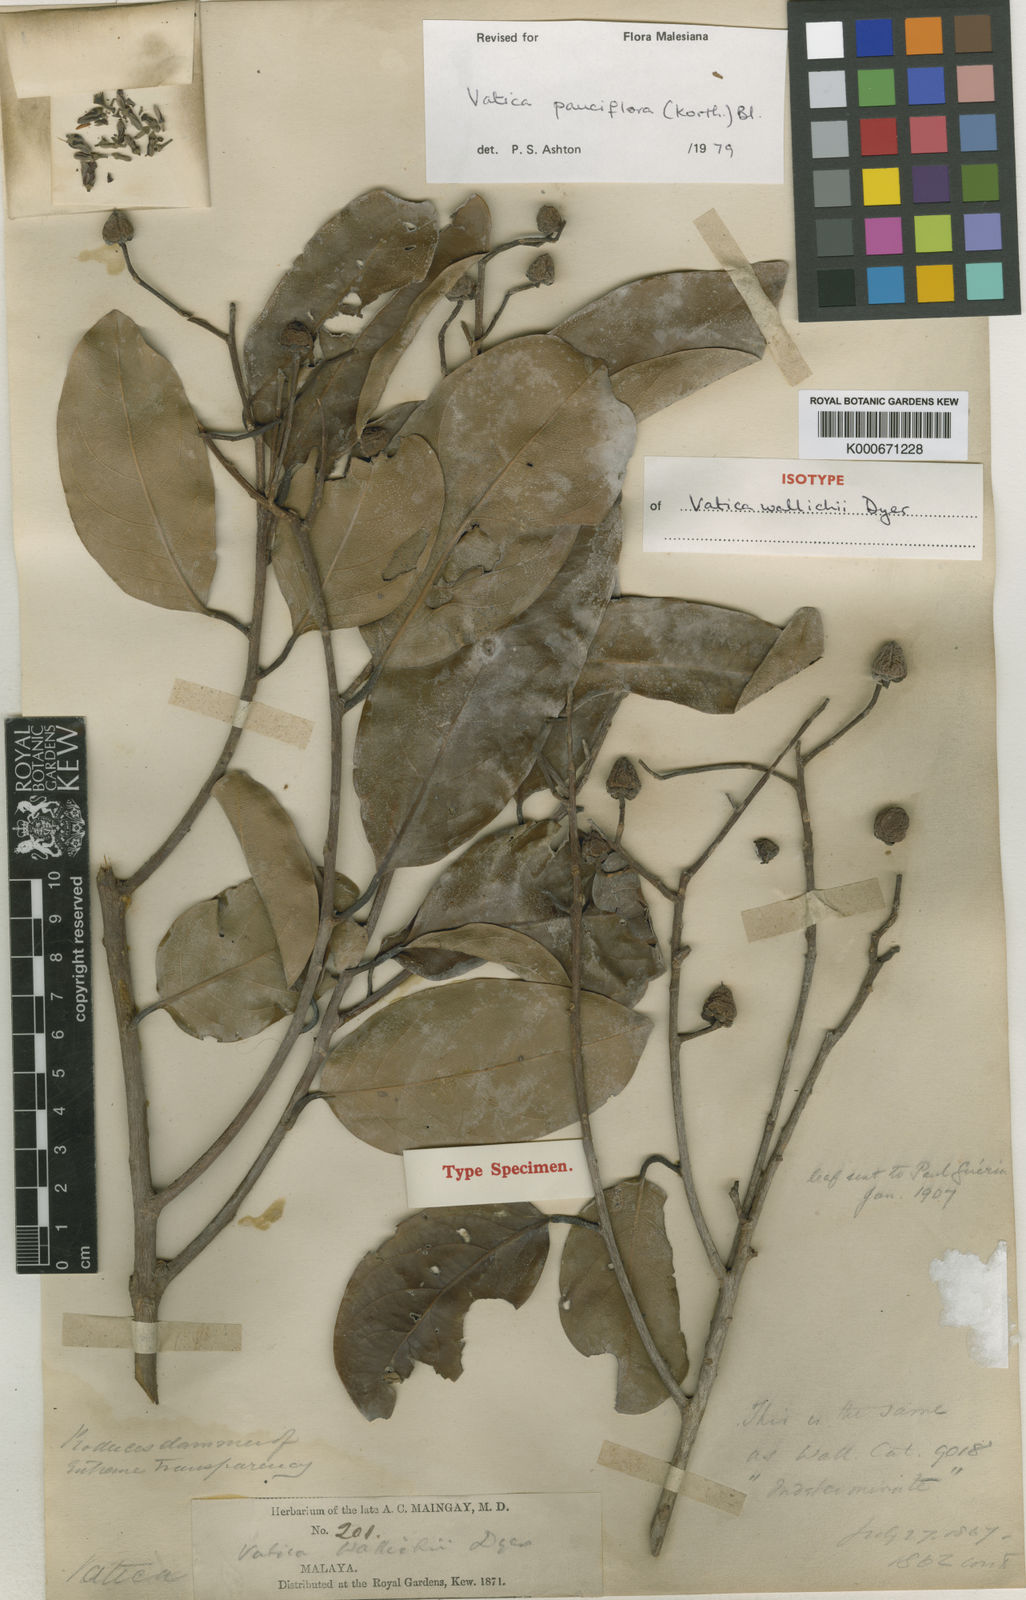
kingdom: Plantae
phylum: Tracheophyta
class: Magnoliopsida
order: Malvales
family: Dipterocarpaceae
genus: Vatica
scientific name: Vatica pauciflora
